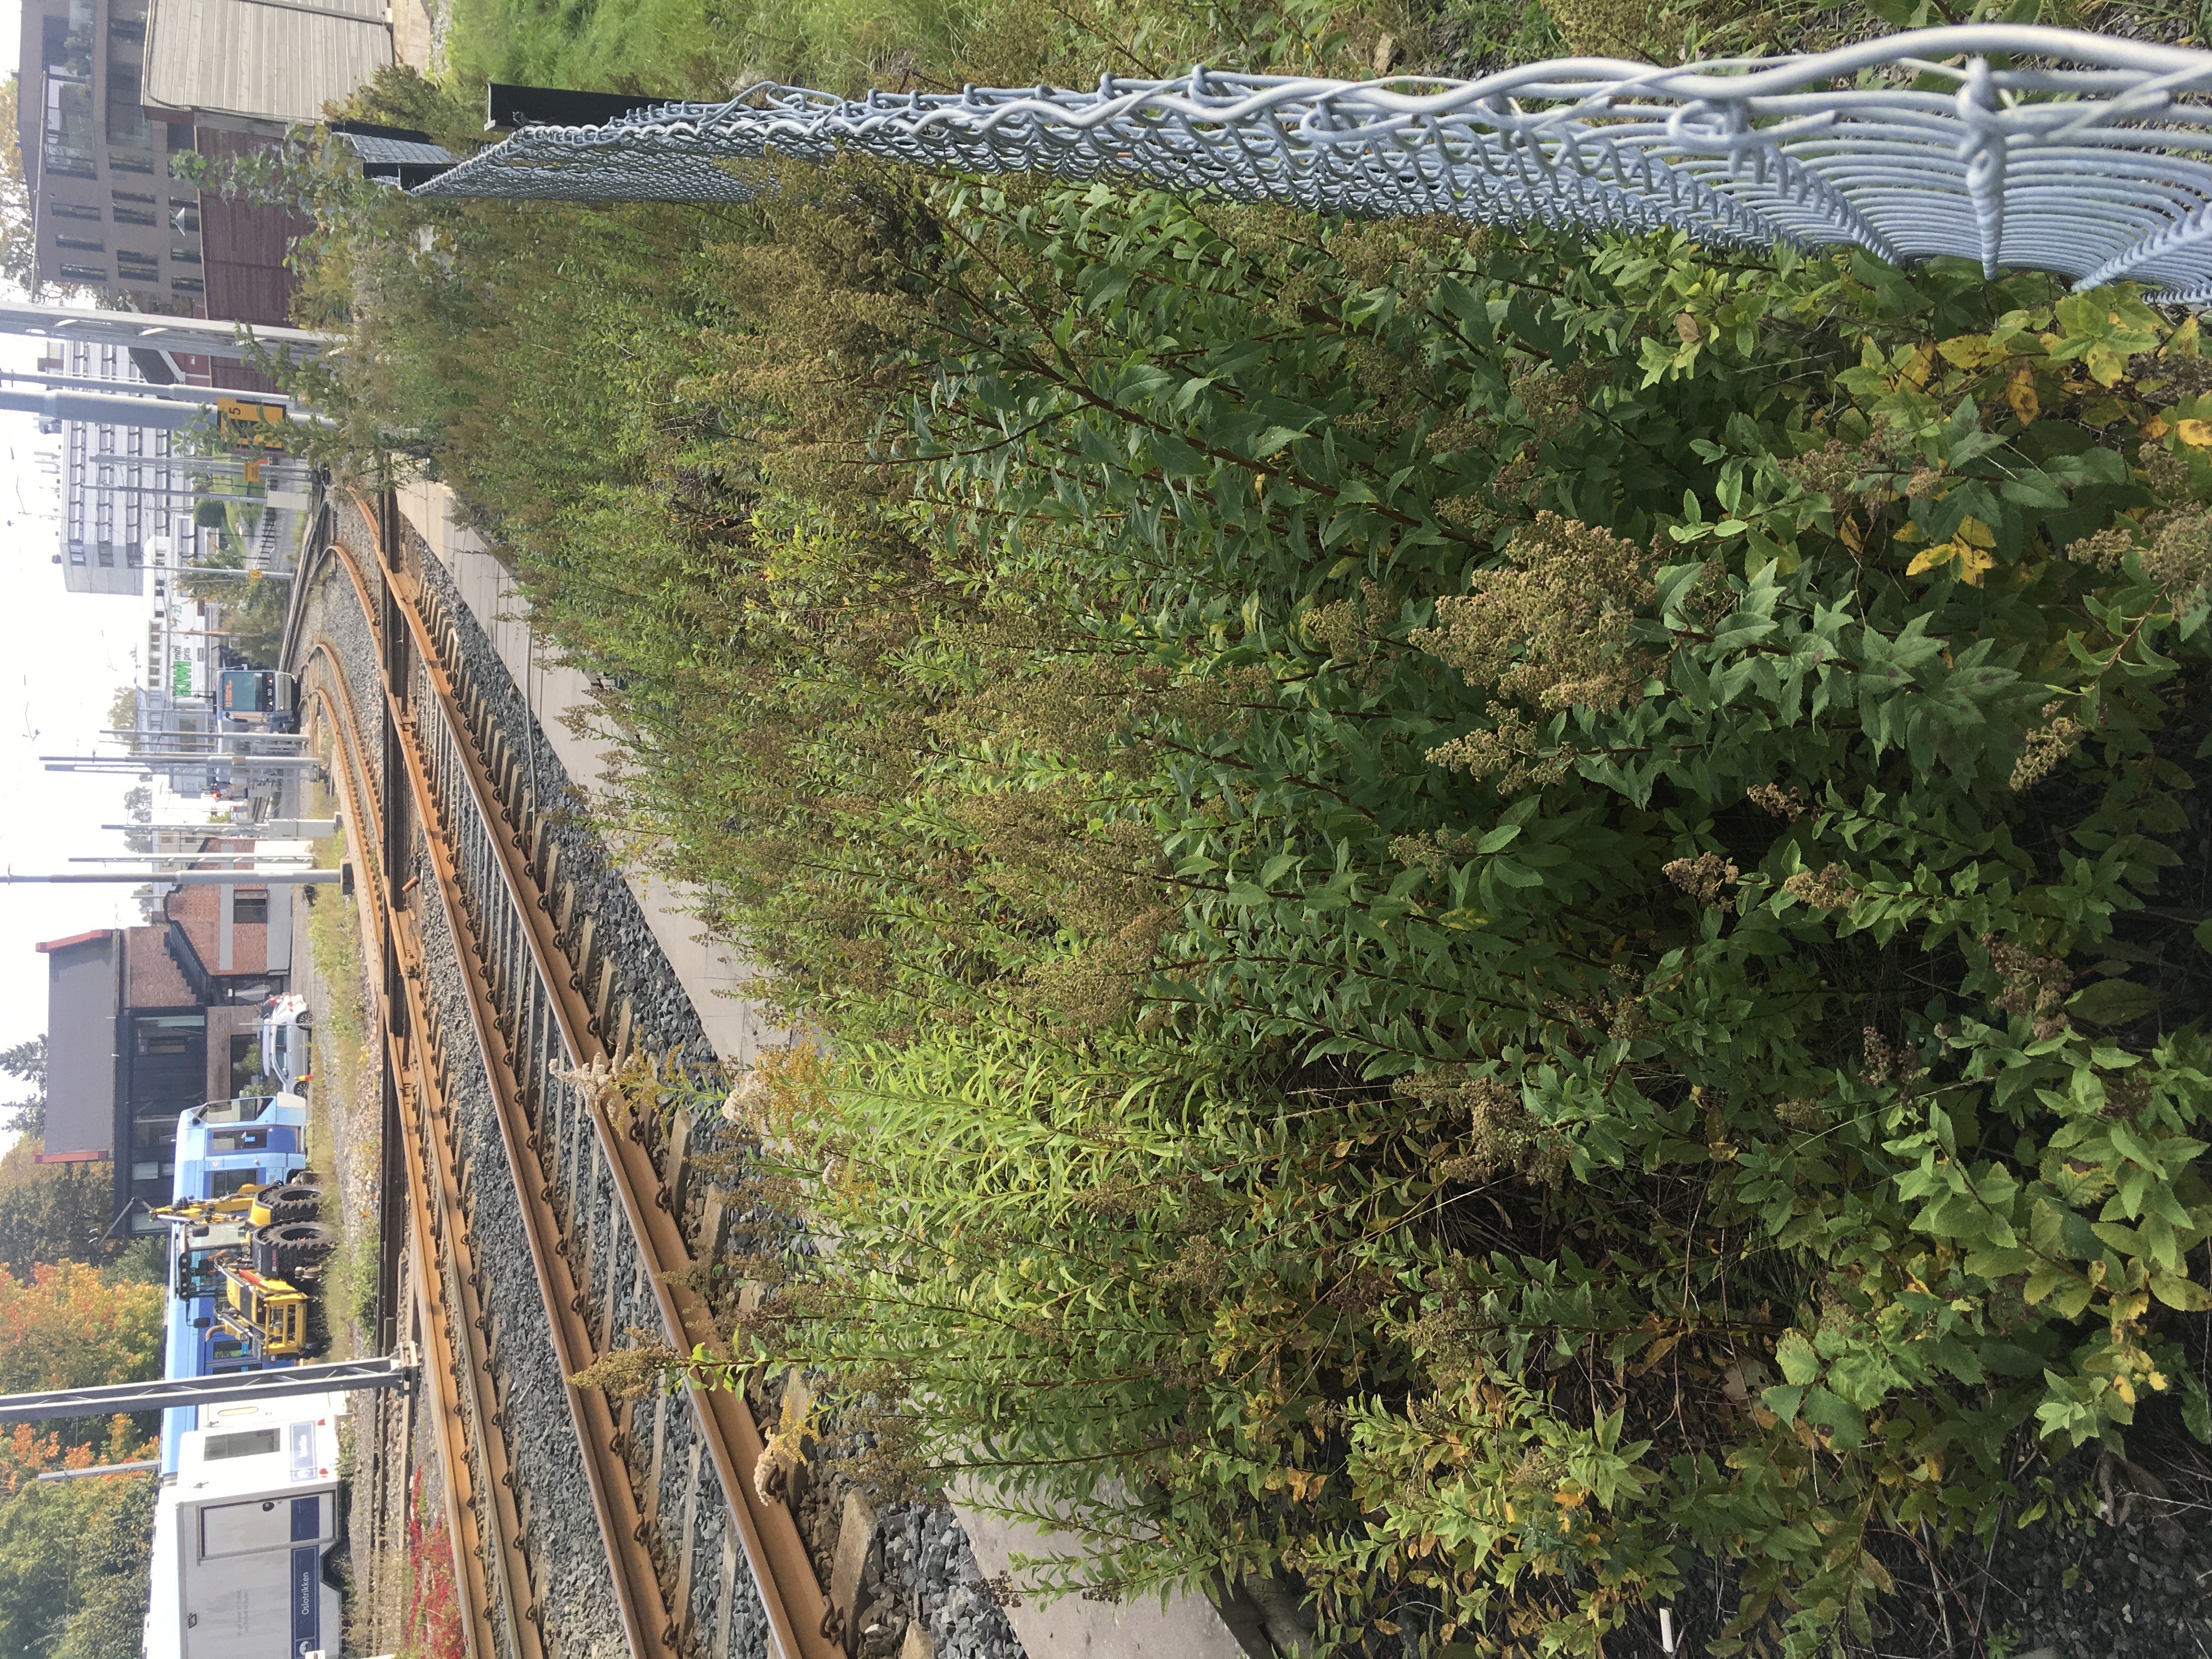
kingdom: Plantae
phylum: Tracheophyta
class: Magnoliopsida
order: Rosales
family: Rosaceae
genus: Spiraea
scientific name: Spiraea alba
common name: breispirea
